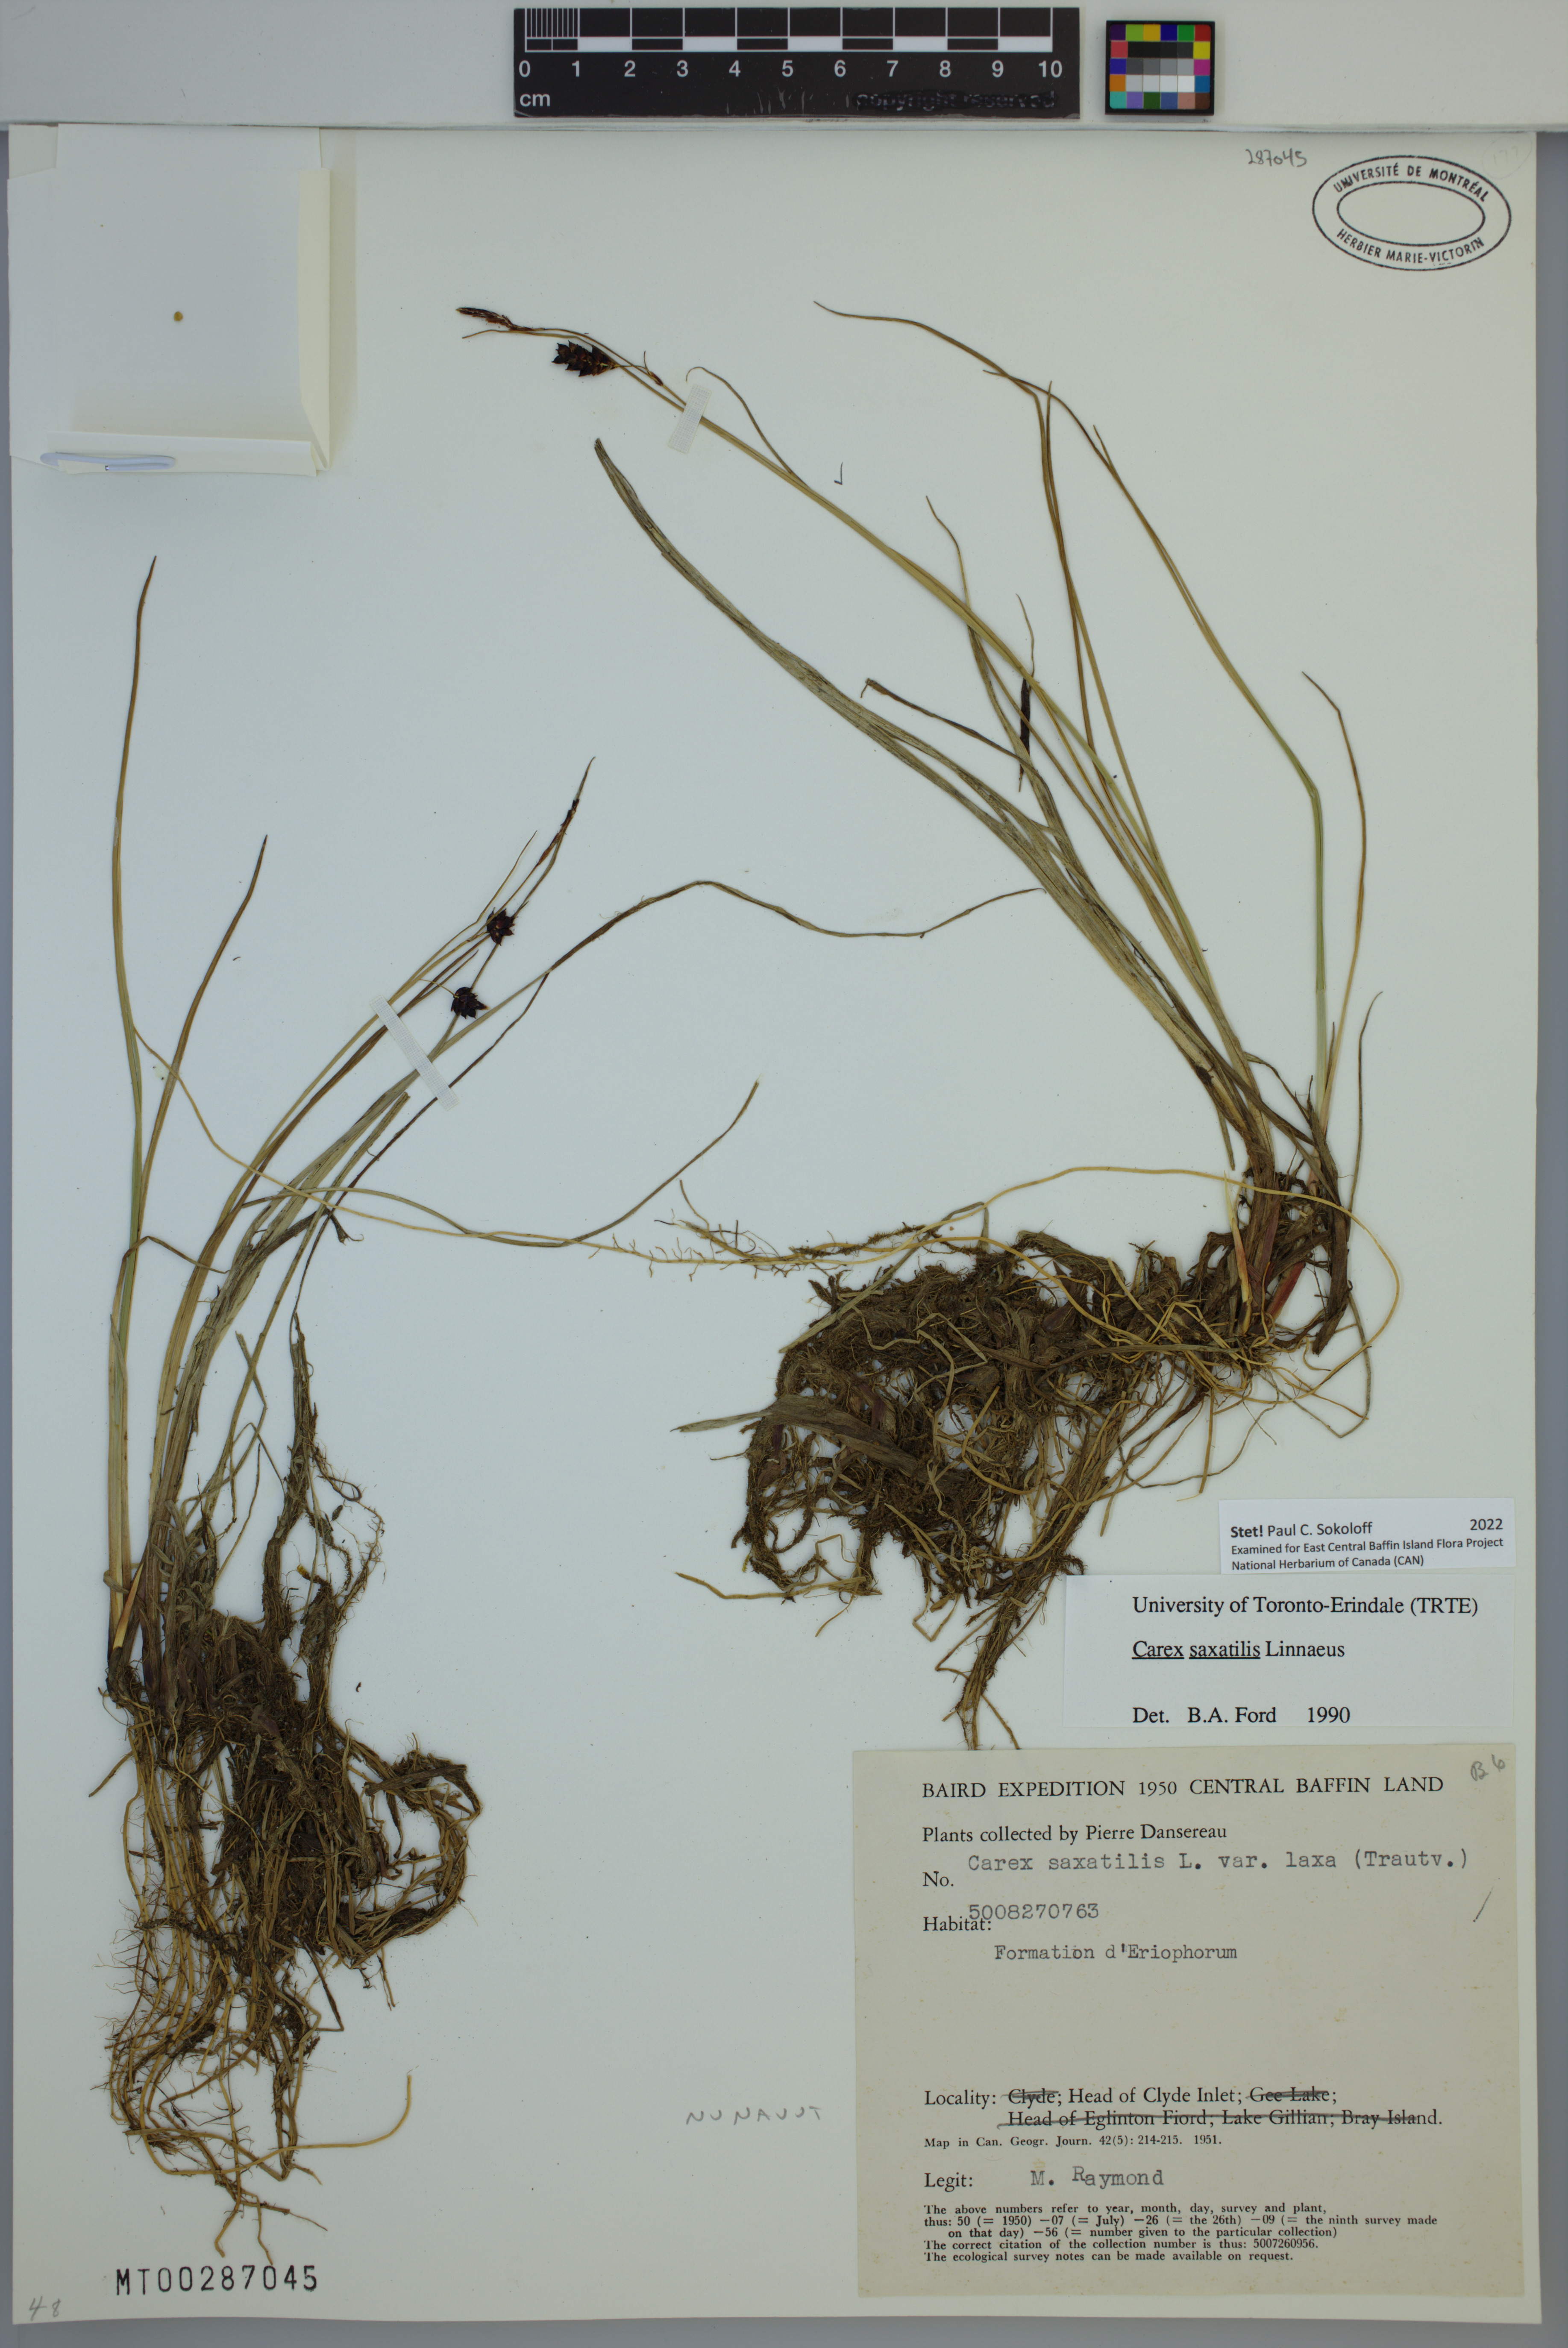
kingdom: Plantae
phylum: Tracheophyta
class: Liliopsida
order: Poales
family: Cyperaceae
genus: Carex
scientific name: Carex saxatilis
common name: Russet sedge
